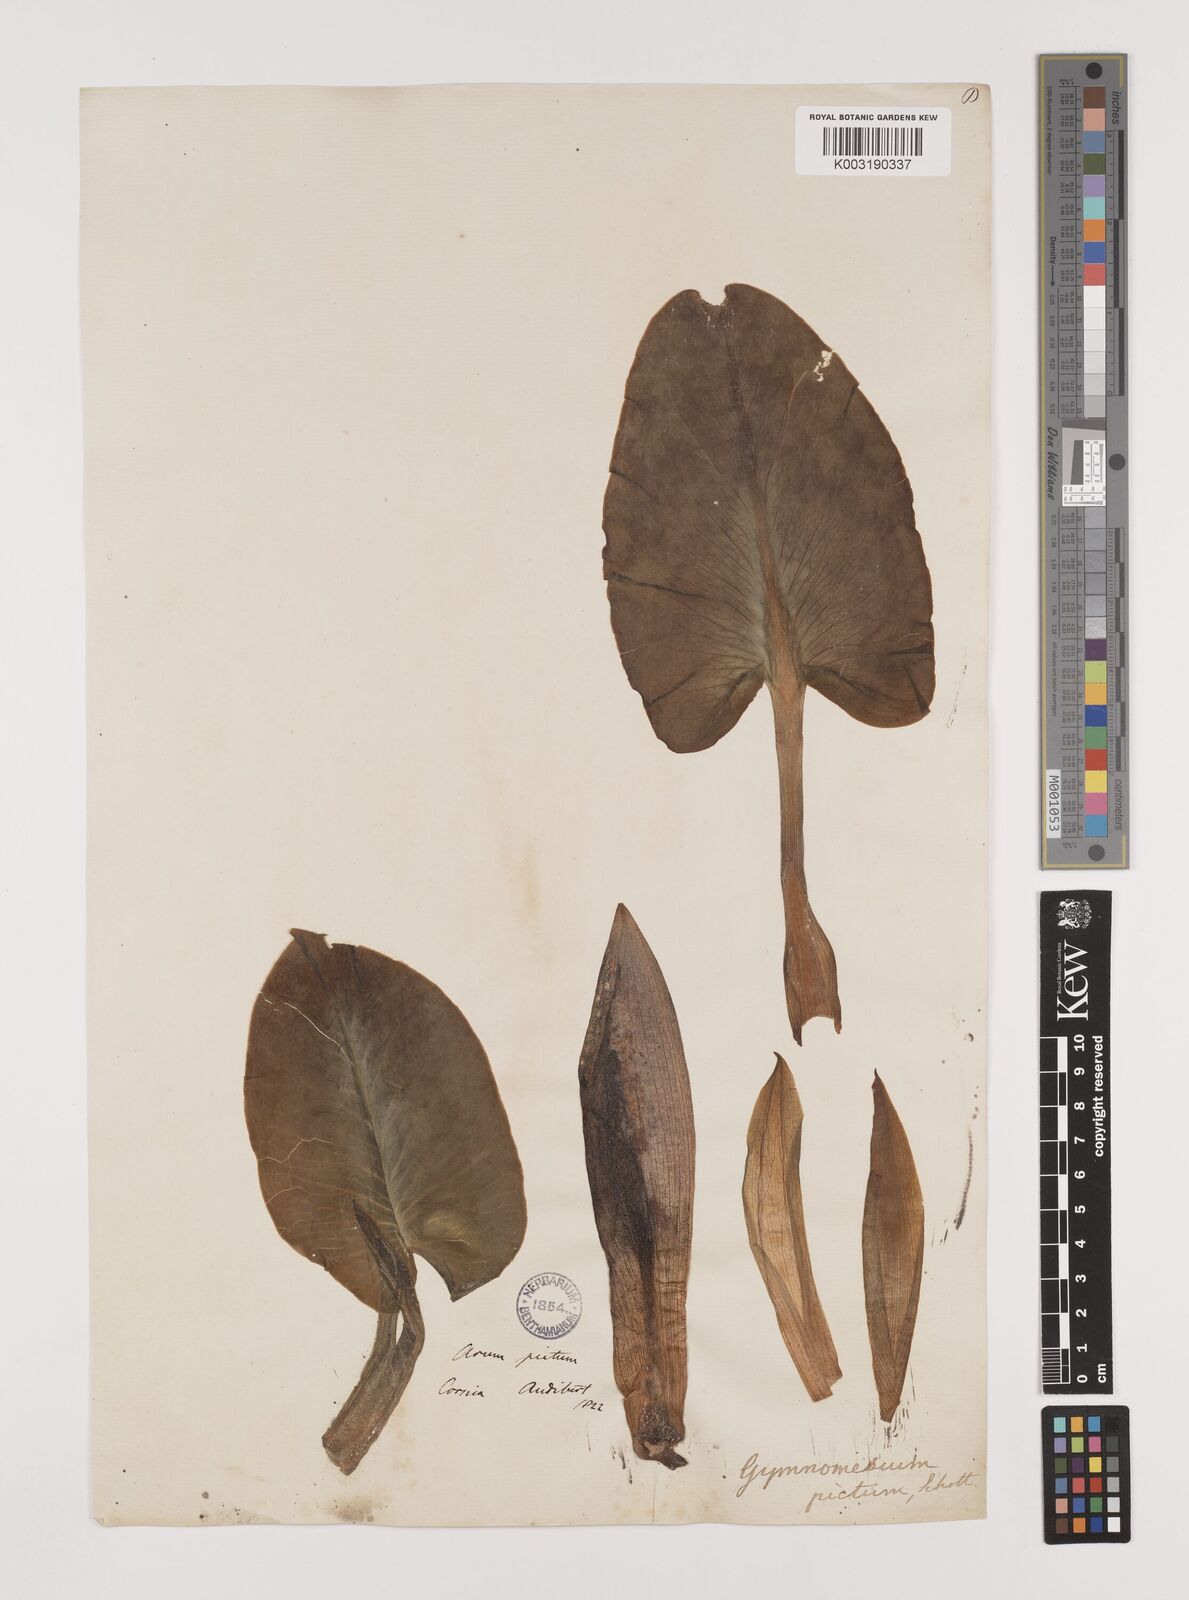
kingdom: Plantae
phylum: Tracheophyta
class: Liliopsida
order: Alismatales
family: Araceae
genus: Arum
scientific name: Arum pictum
